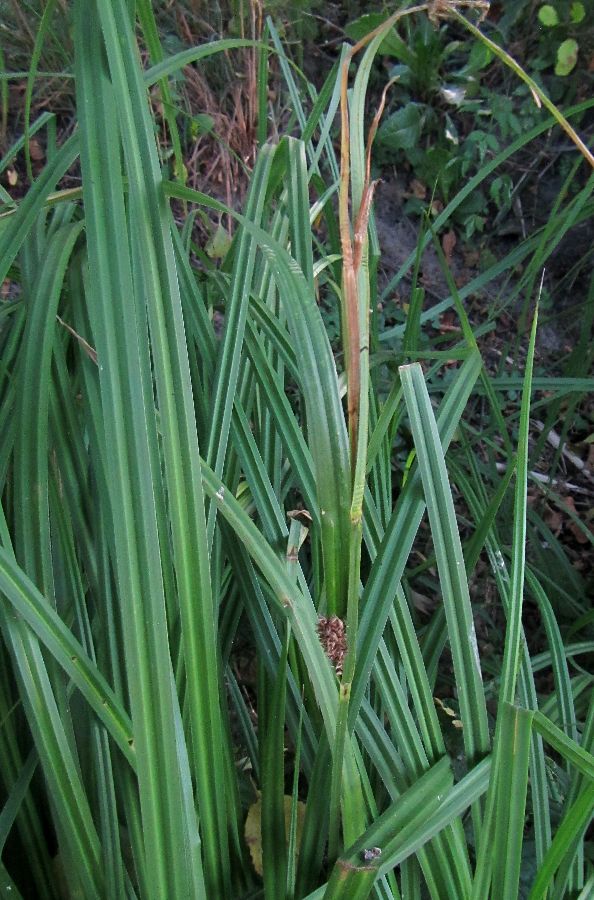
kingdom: Plantae
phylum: Tracheophyta
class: Liliopsida
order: Poales
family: Cyperaceae
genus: Carex
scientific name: Carex riparia
